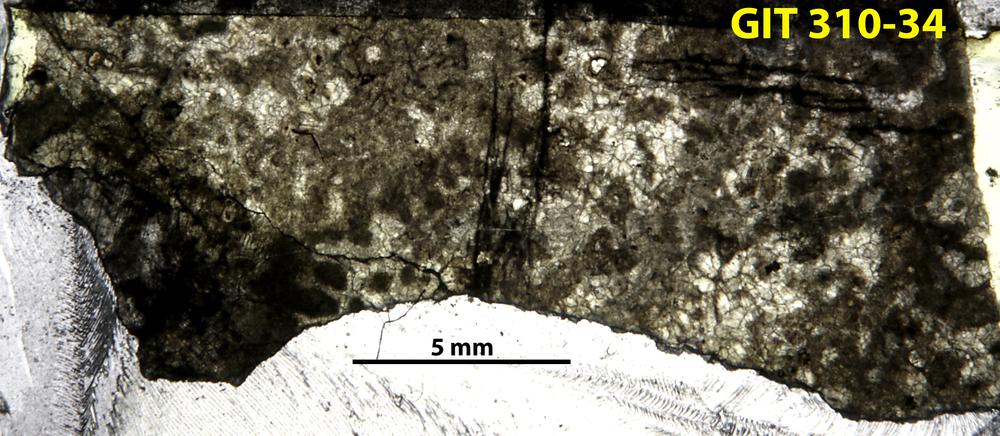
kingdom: Animalia
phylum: Porifera
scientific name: Porifera
